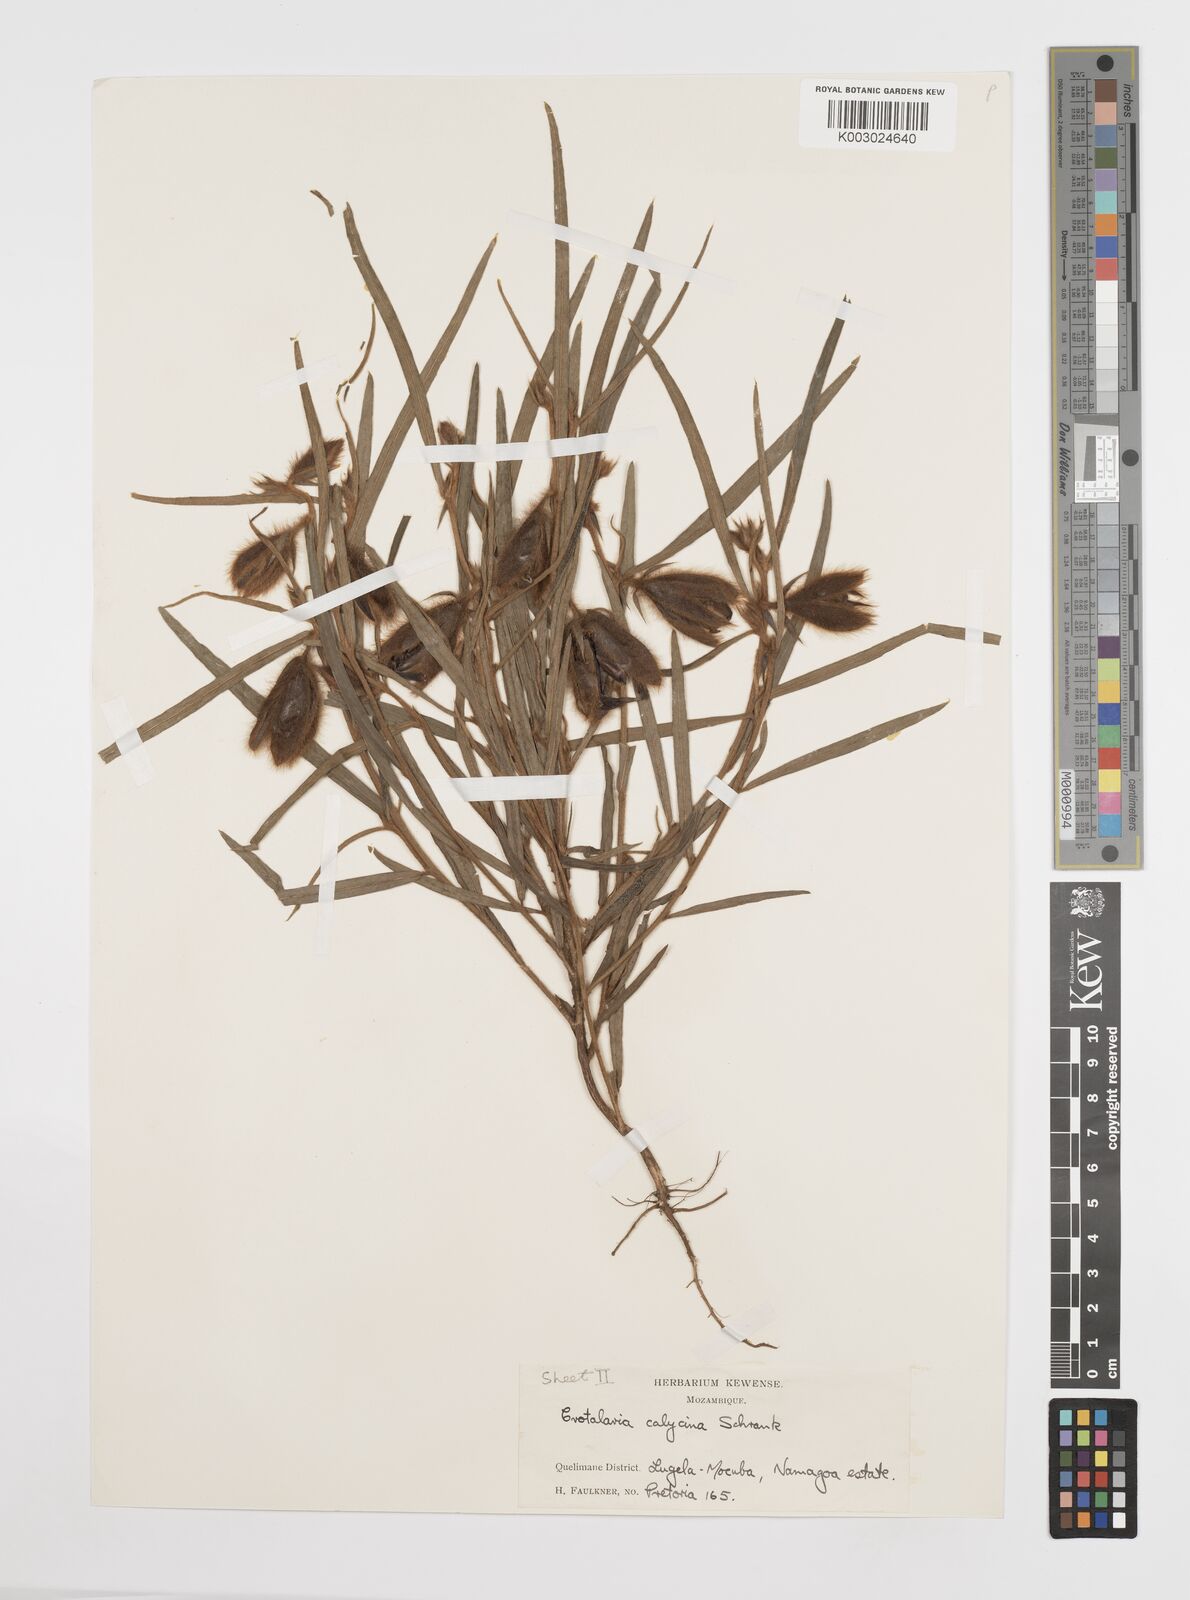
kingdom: Plantae
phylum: Tracheophyta
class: Magnoliopsida
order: Fabales
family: Fabaceae
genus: Crotalaria
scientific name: Crotalaria calycina
